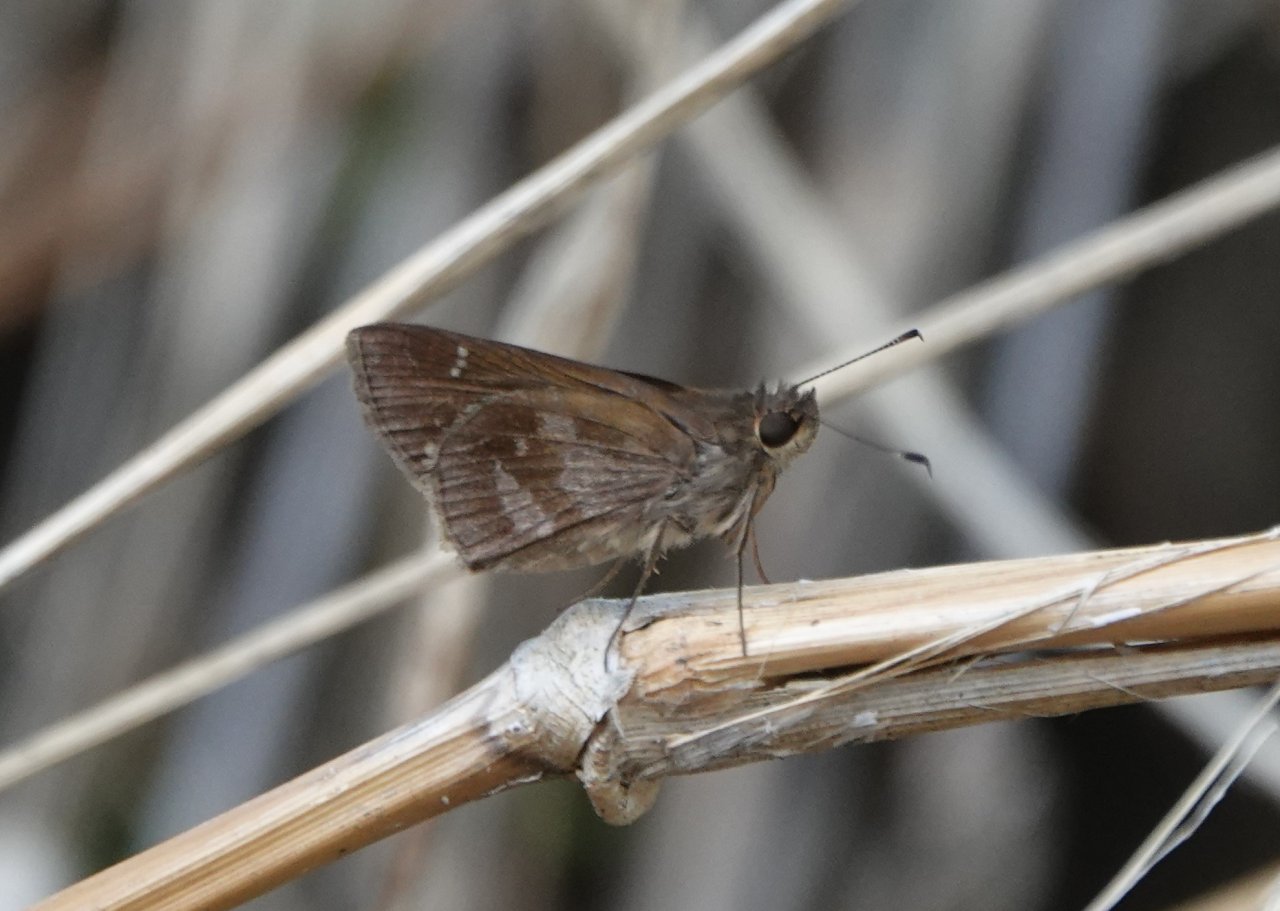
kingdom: Animalia
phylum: Arthropoda
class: Insecta
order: Lepidoptera
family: Hesperiidae
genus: Cymaenes
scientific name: Cymaenes odilia
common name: Fawn-spotted Skipper
